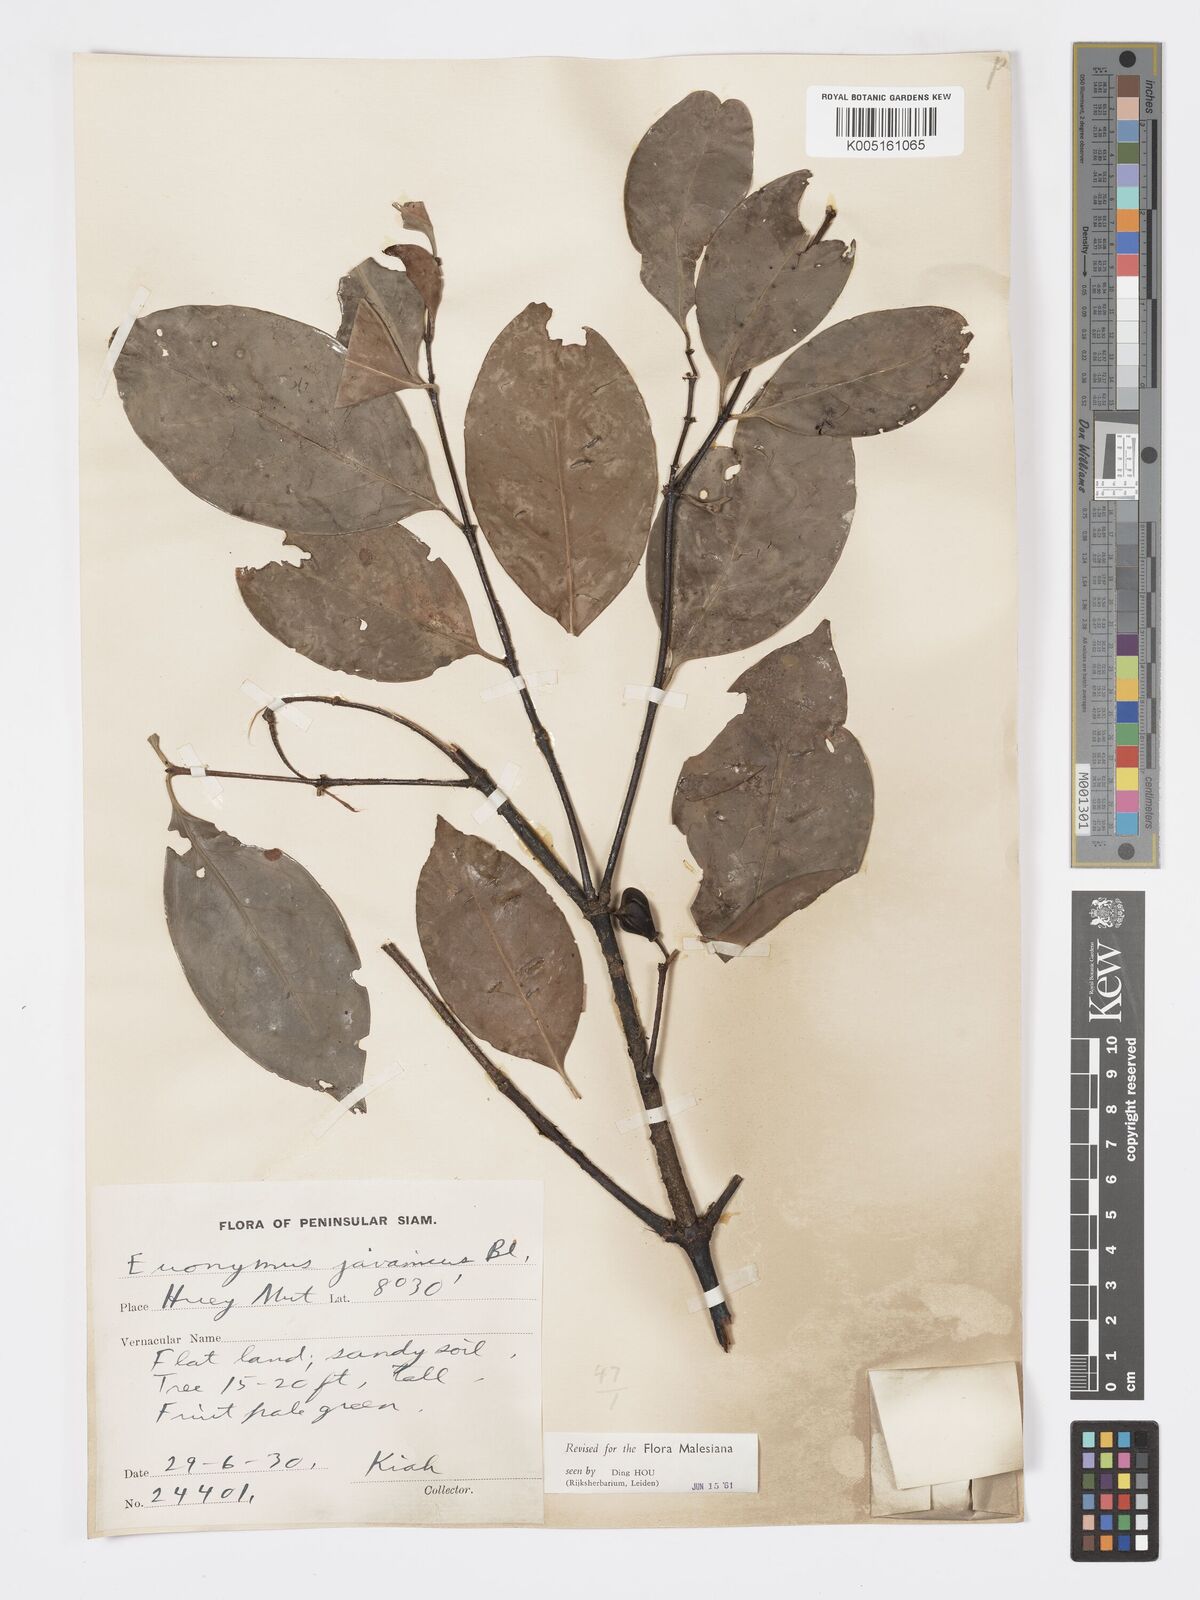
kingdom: Plantae
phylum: Tracheophyta
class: Magnoliopsida
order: Celastrales
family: Celastraceae
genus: Euonymus
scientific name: Euonymus indicus
